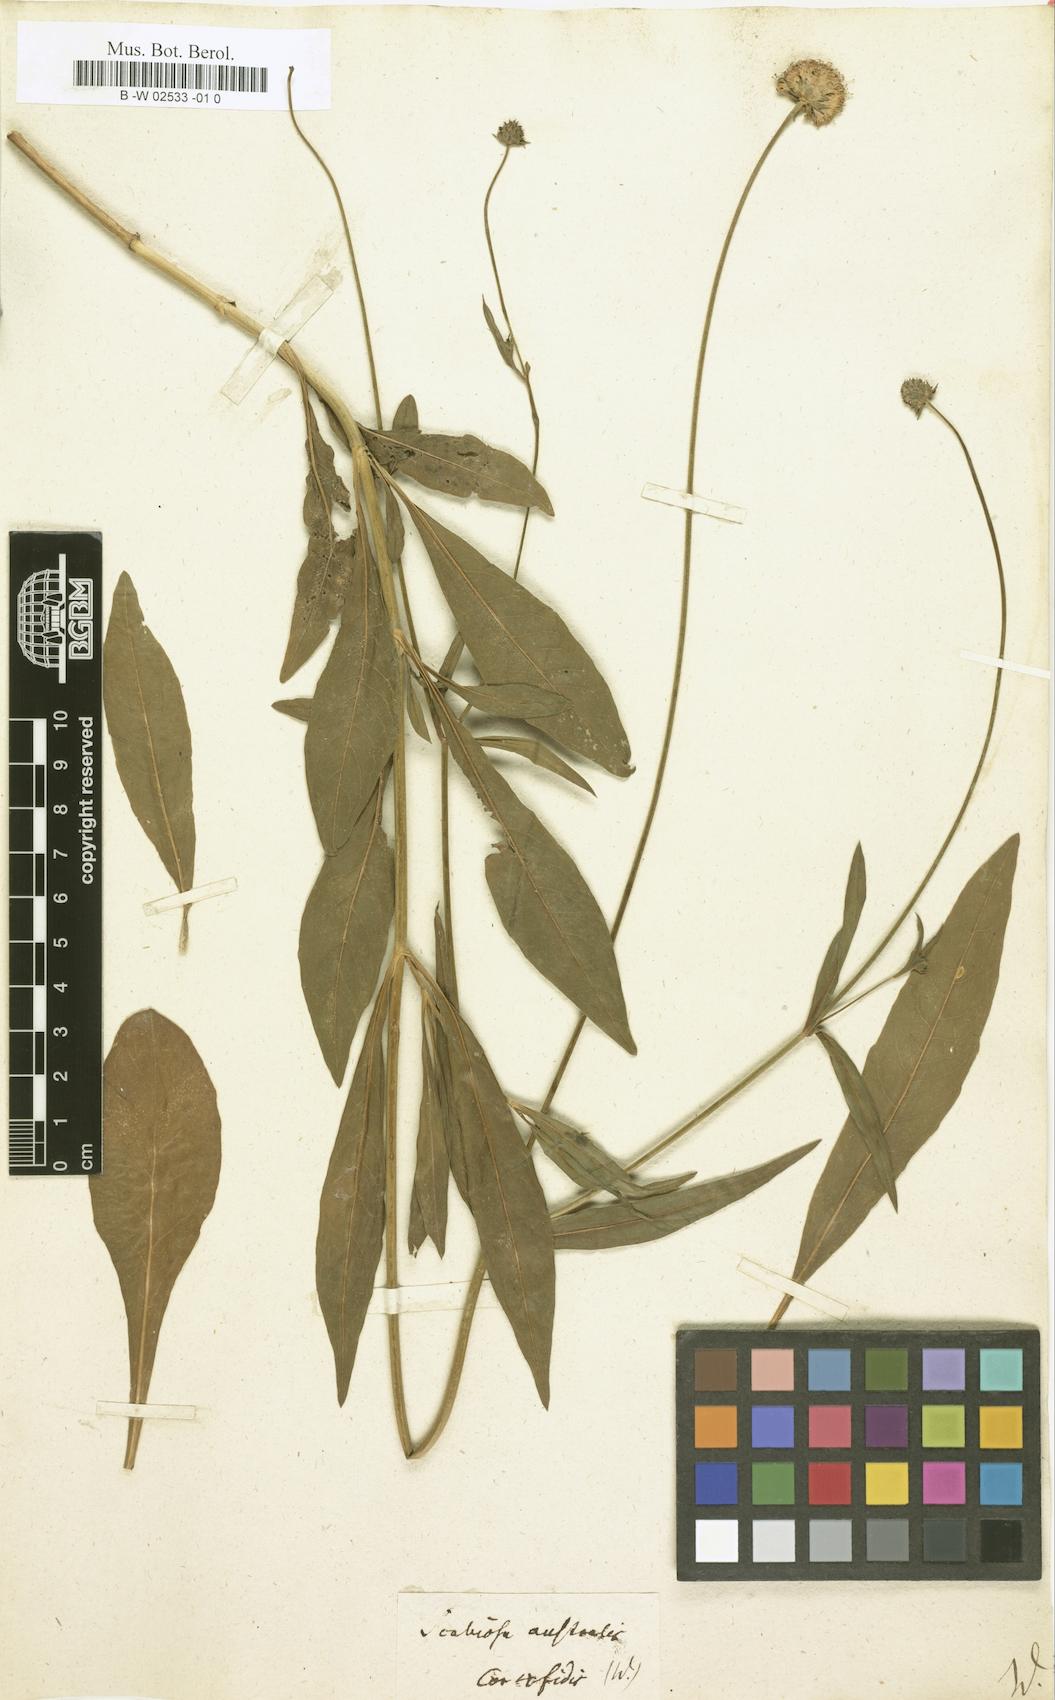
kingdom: Plantae
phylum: Tracheophyta
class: Magnoliopsida
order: Dipsacales
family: Caprifoliaceae
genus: Succisella
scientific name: Succisella inflexa
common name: Southern succisella
